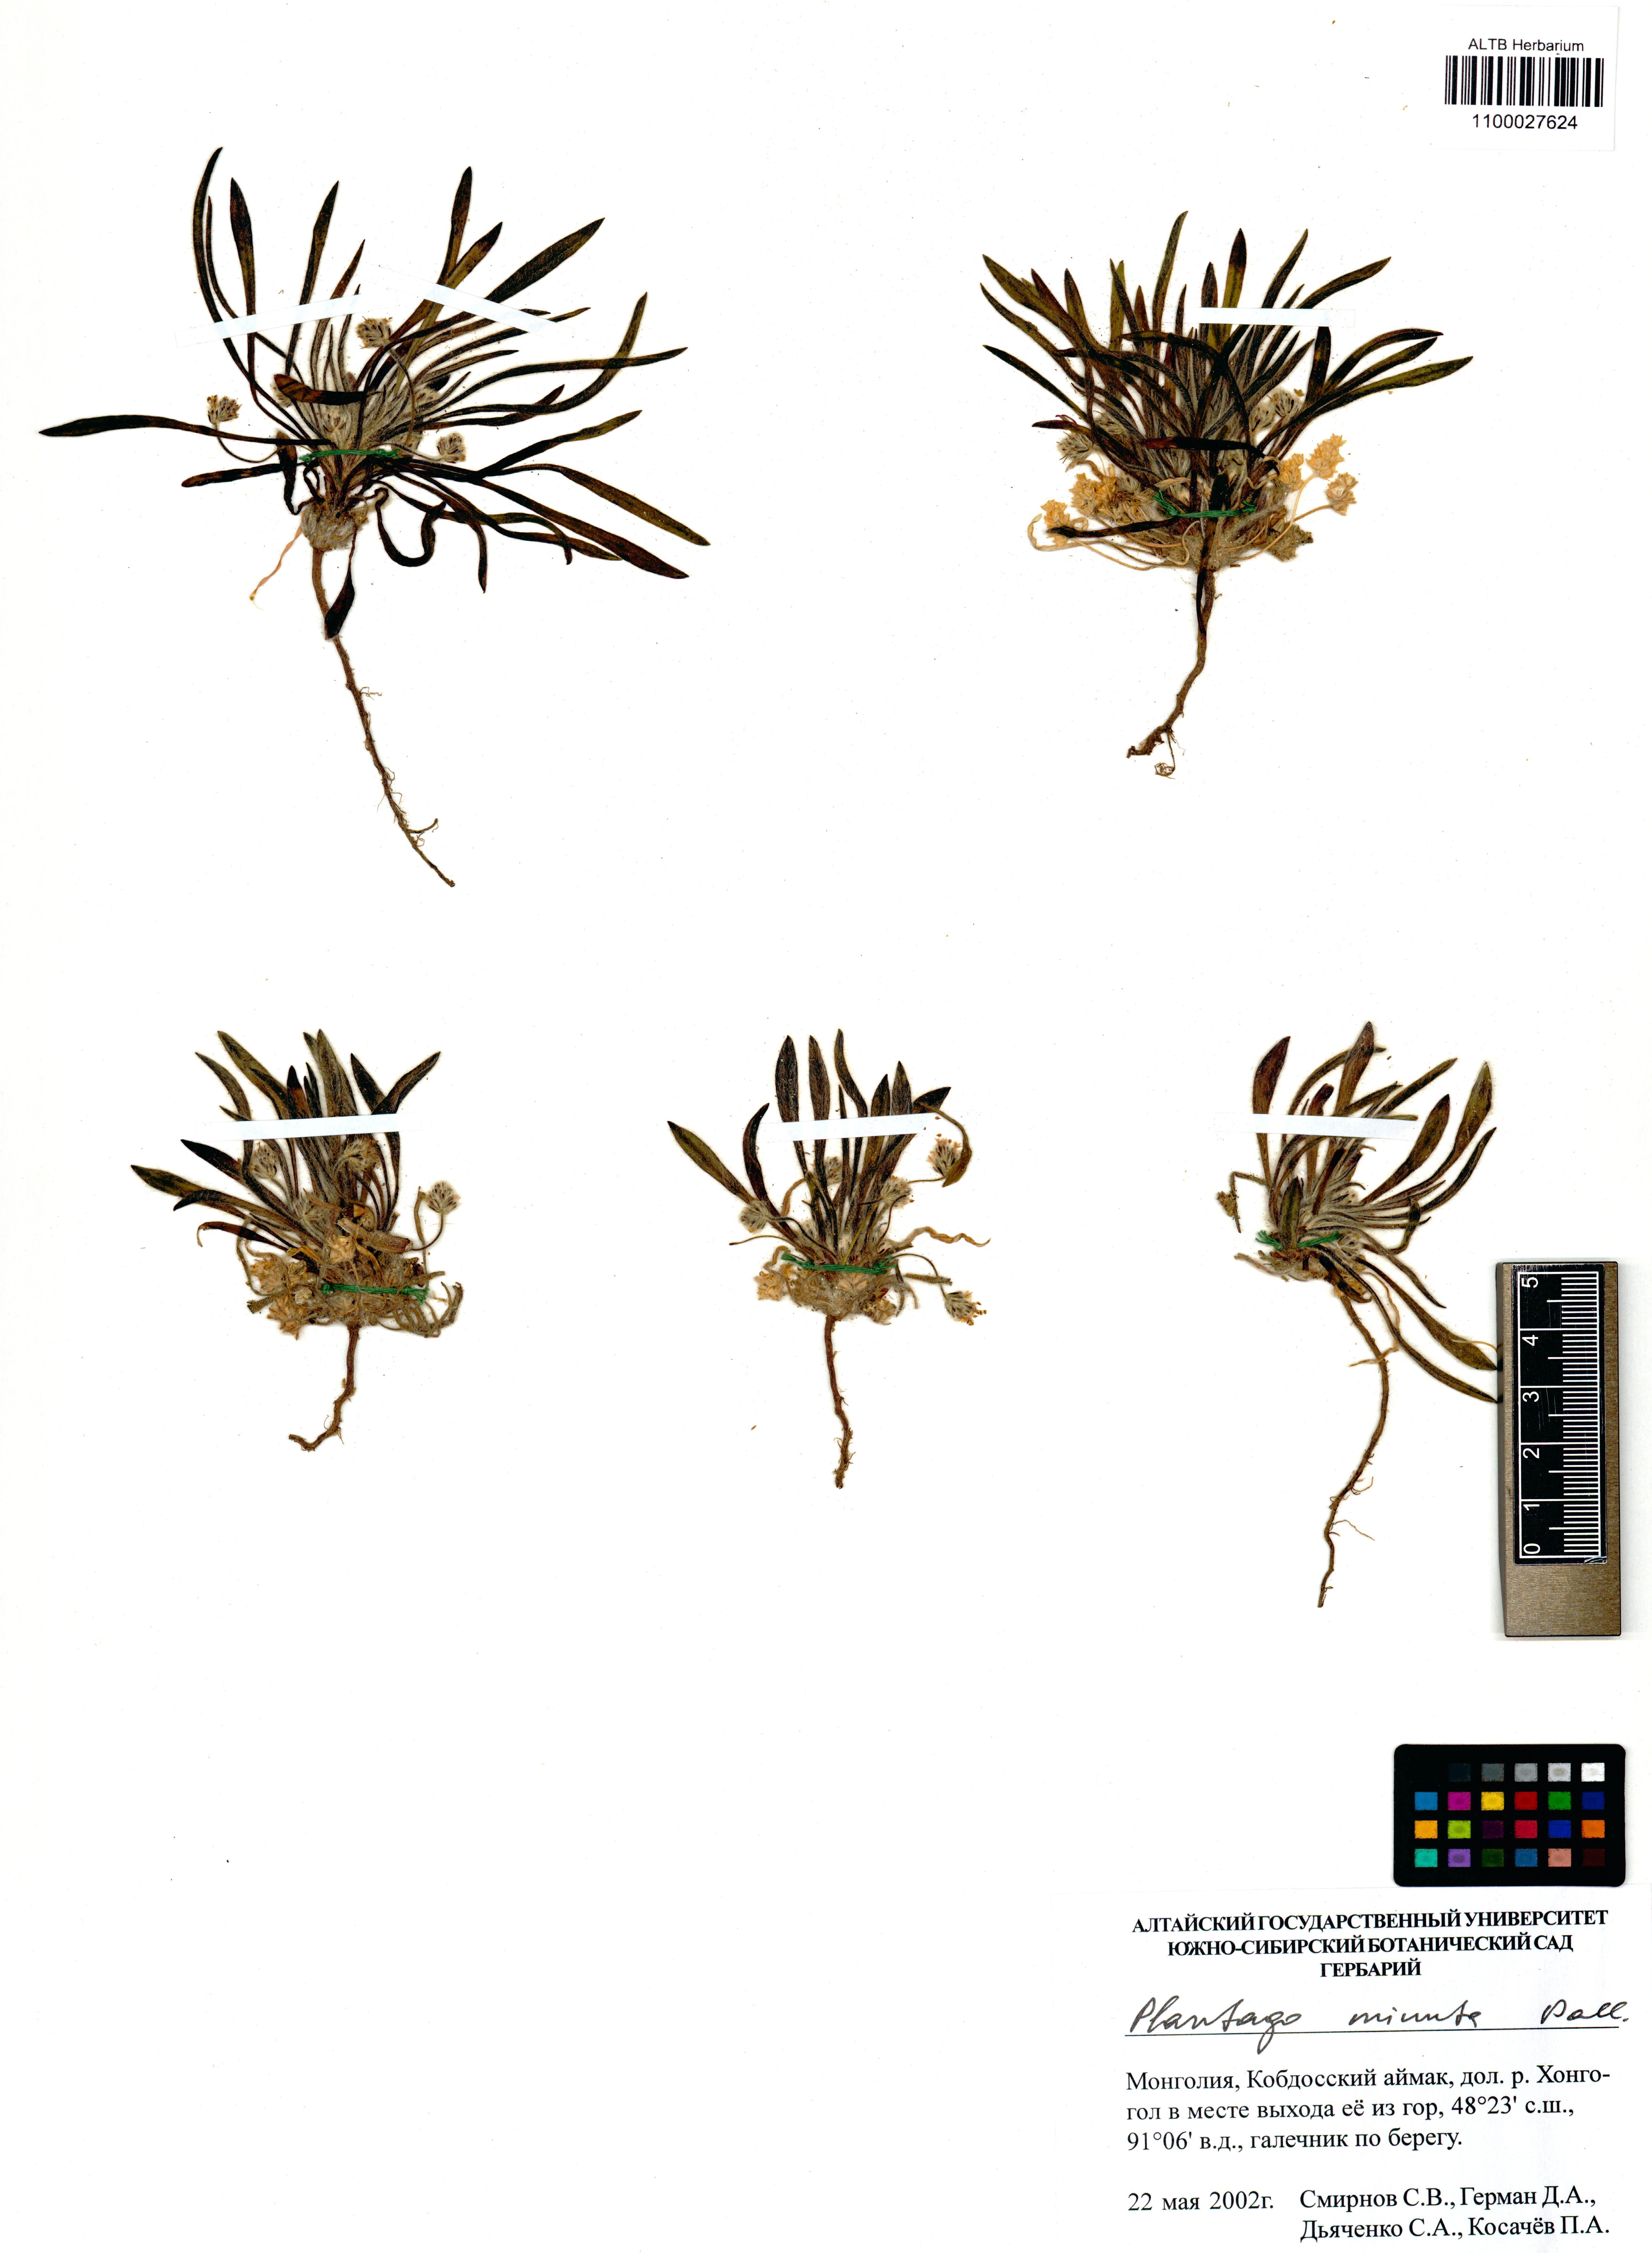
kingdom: Plantae
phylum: Tracheophyta
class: Magnoliopsida
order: Lamiales
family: Plantaginaceae
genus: Plantago
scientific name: Plantago minuta
